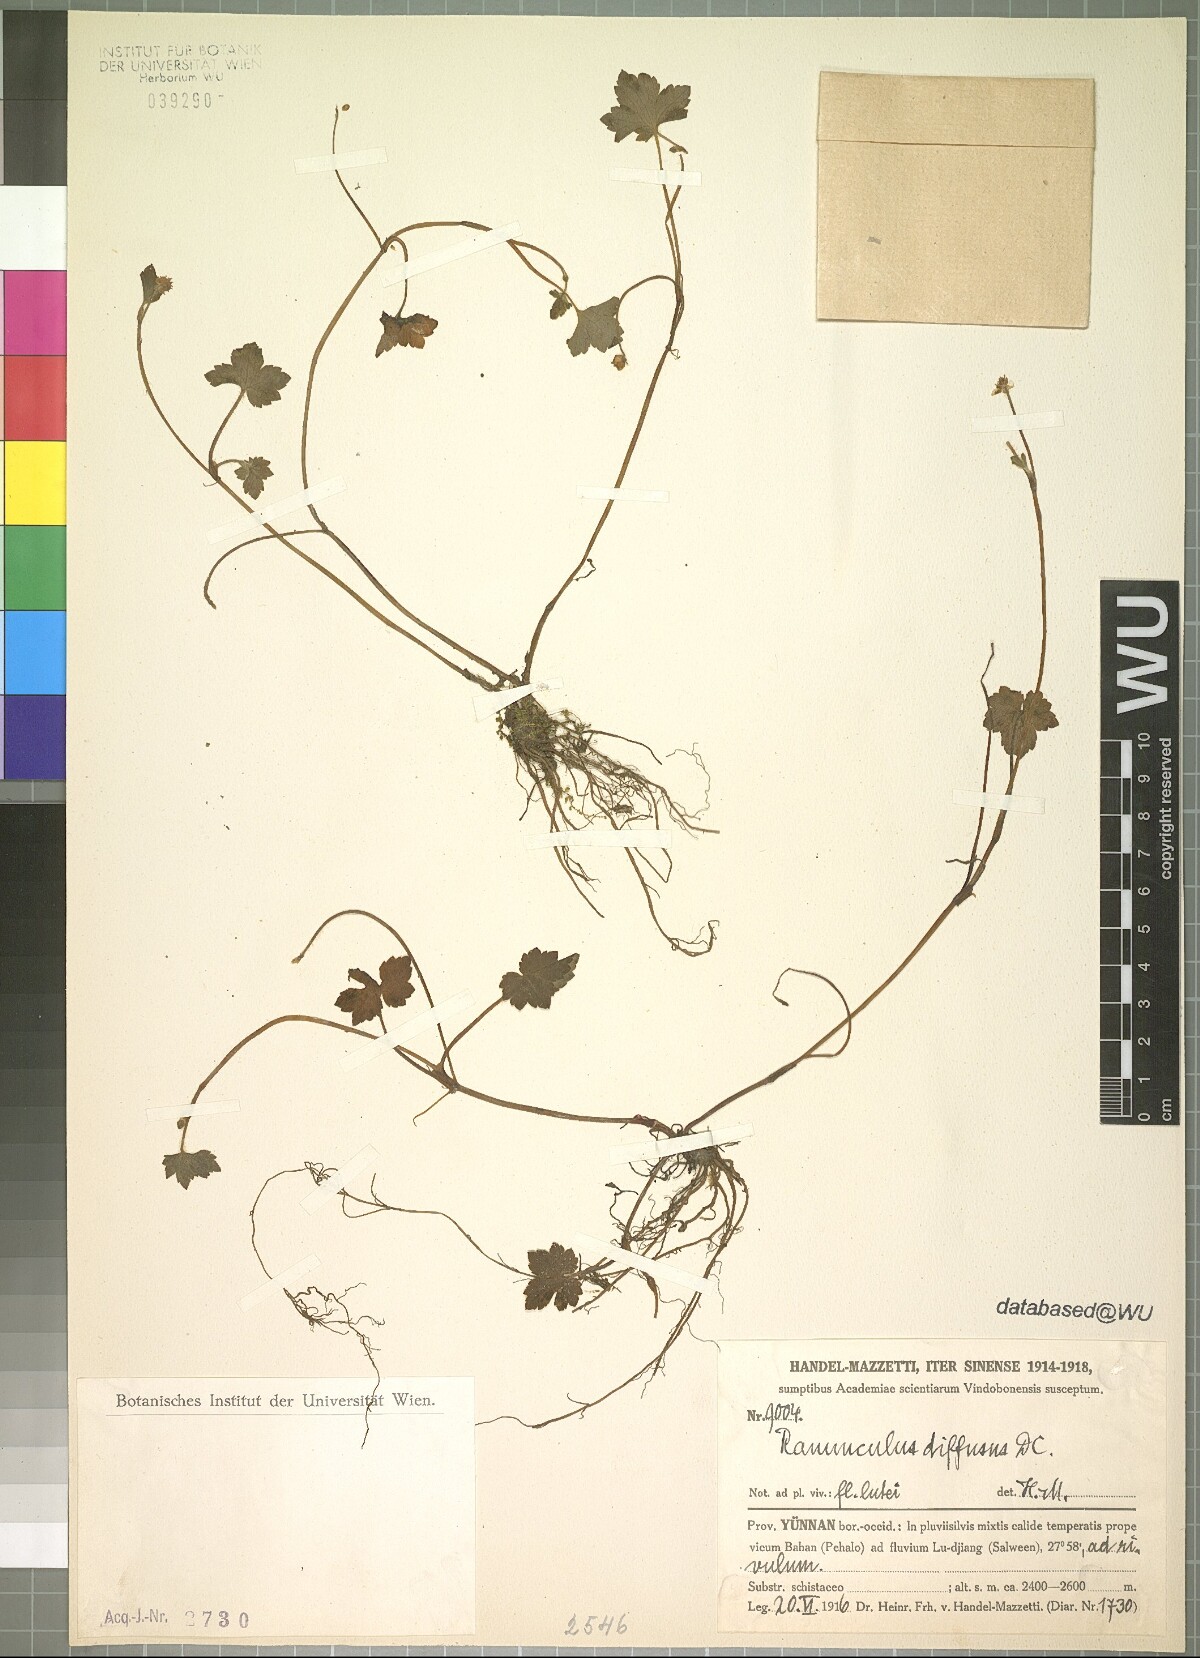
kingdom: Plantae
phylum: Tracheophyta
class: Magnoliopsida
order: Ranunculales
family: Ranunculaceae
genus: Ranunculus
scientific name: Ranunculus diffusus
